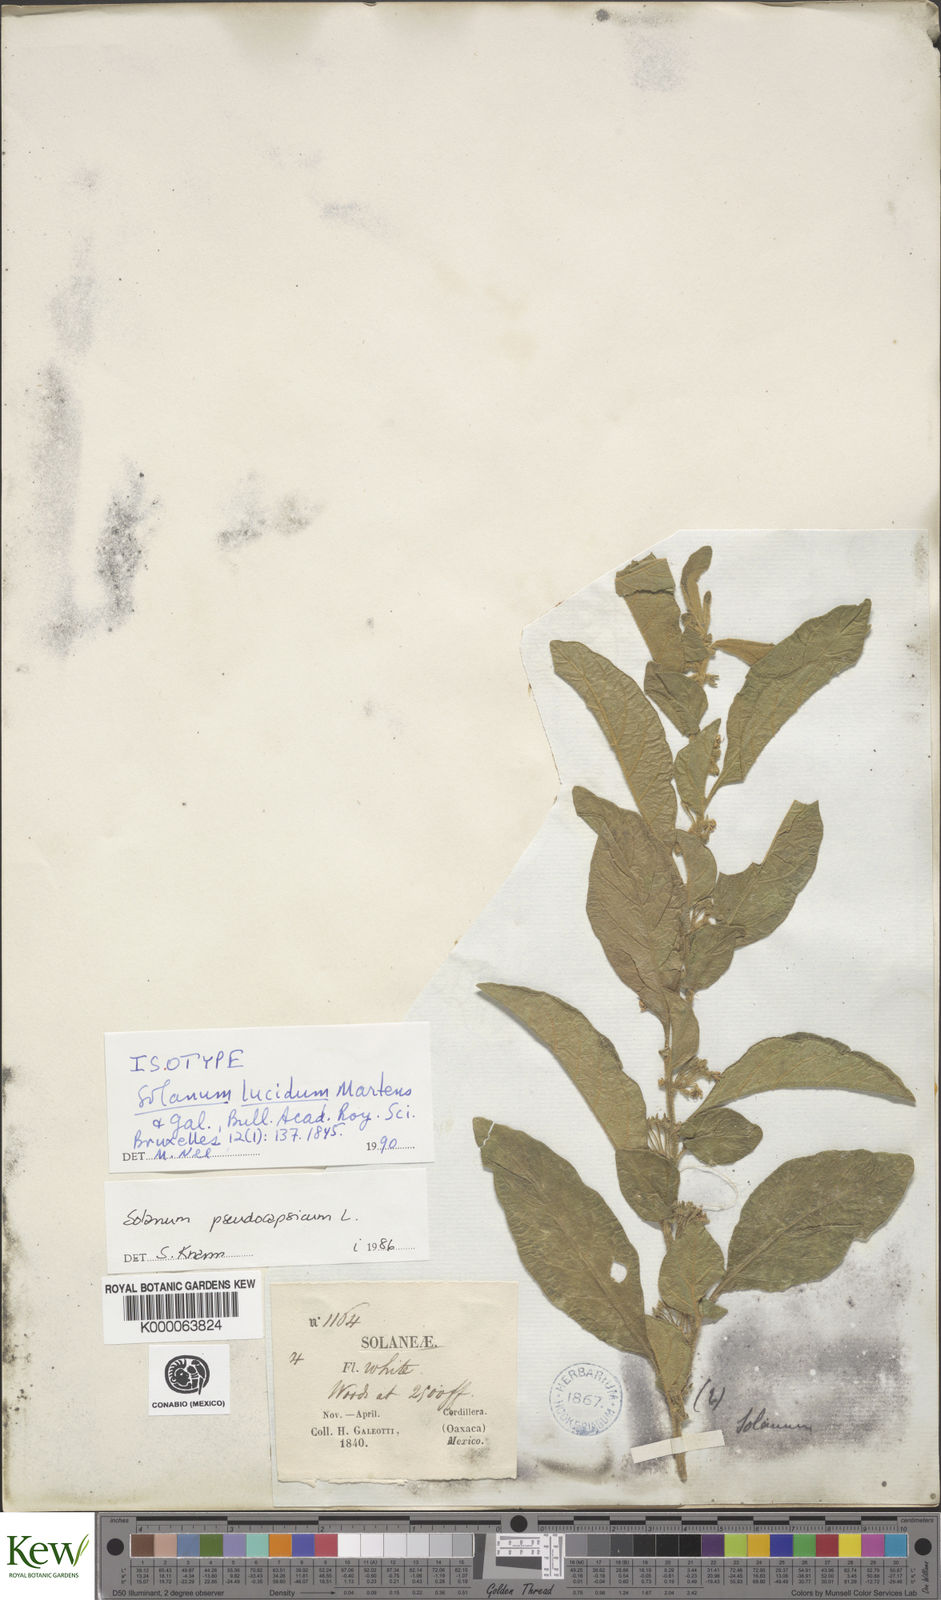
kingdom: Plantae
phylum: Tracheophyta
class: Magnoliopsida
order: Solanales
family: Solanaceae
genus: Solanum
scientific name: Solanum nigricans
